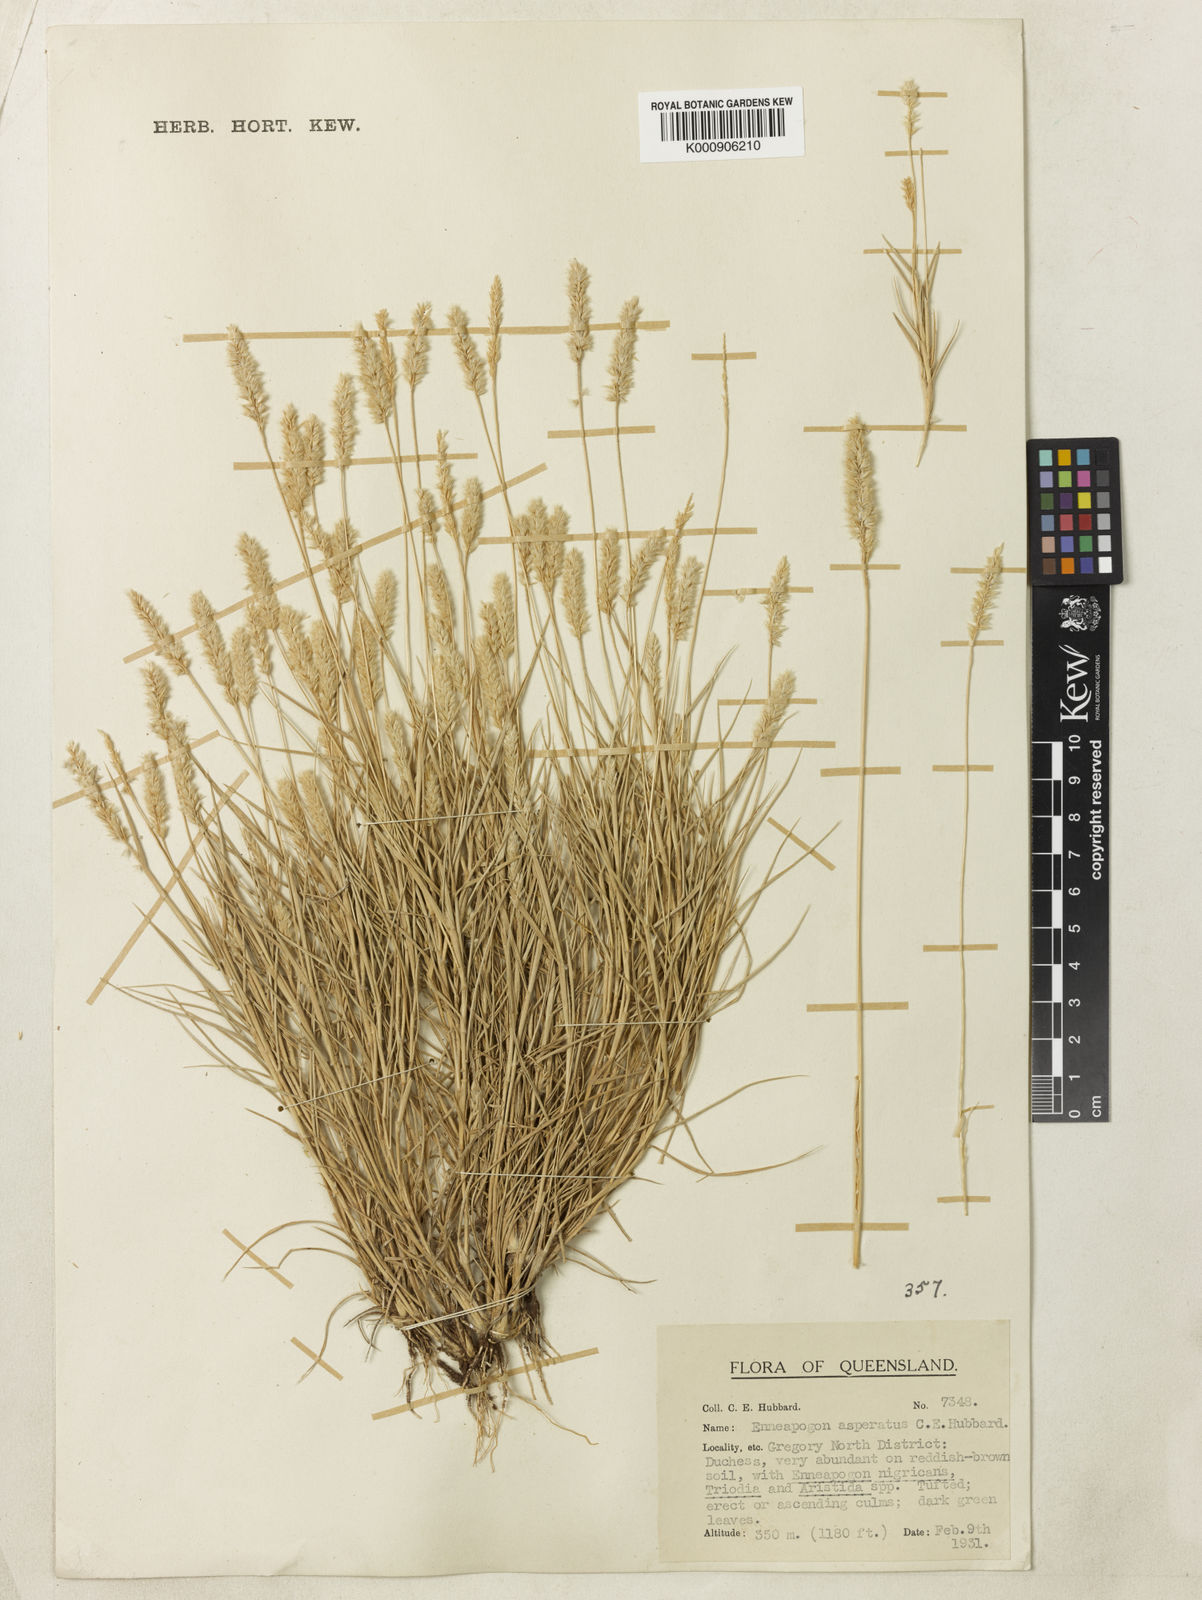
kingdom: Plantae
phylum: Tracheophyta
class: Liliopsida
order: Poales
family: Poaceae
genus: Enneapogon
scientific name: Enneapogon asperatus
